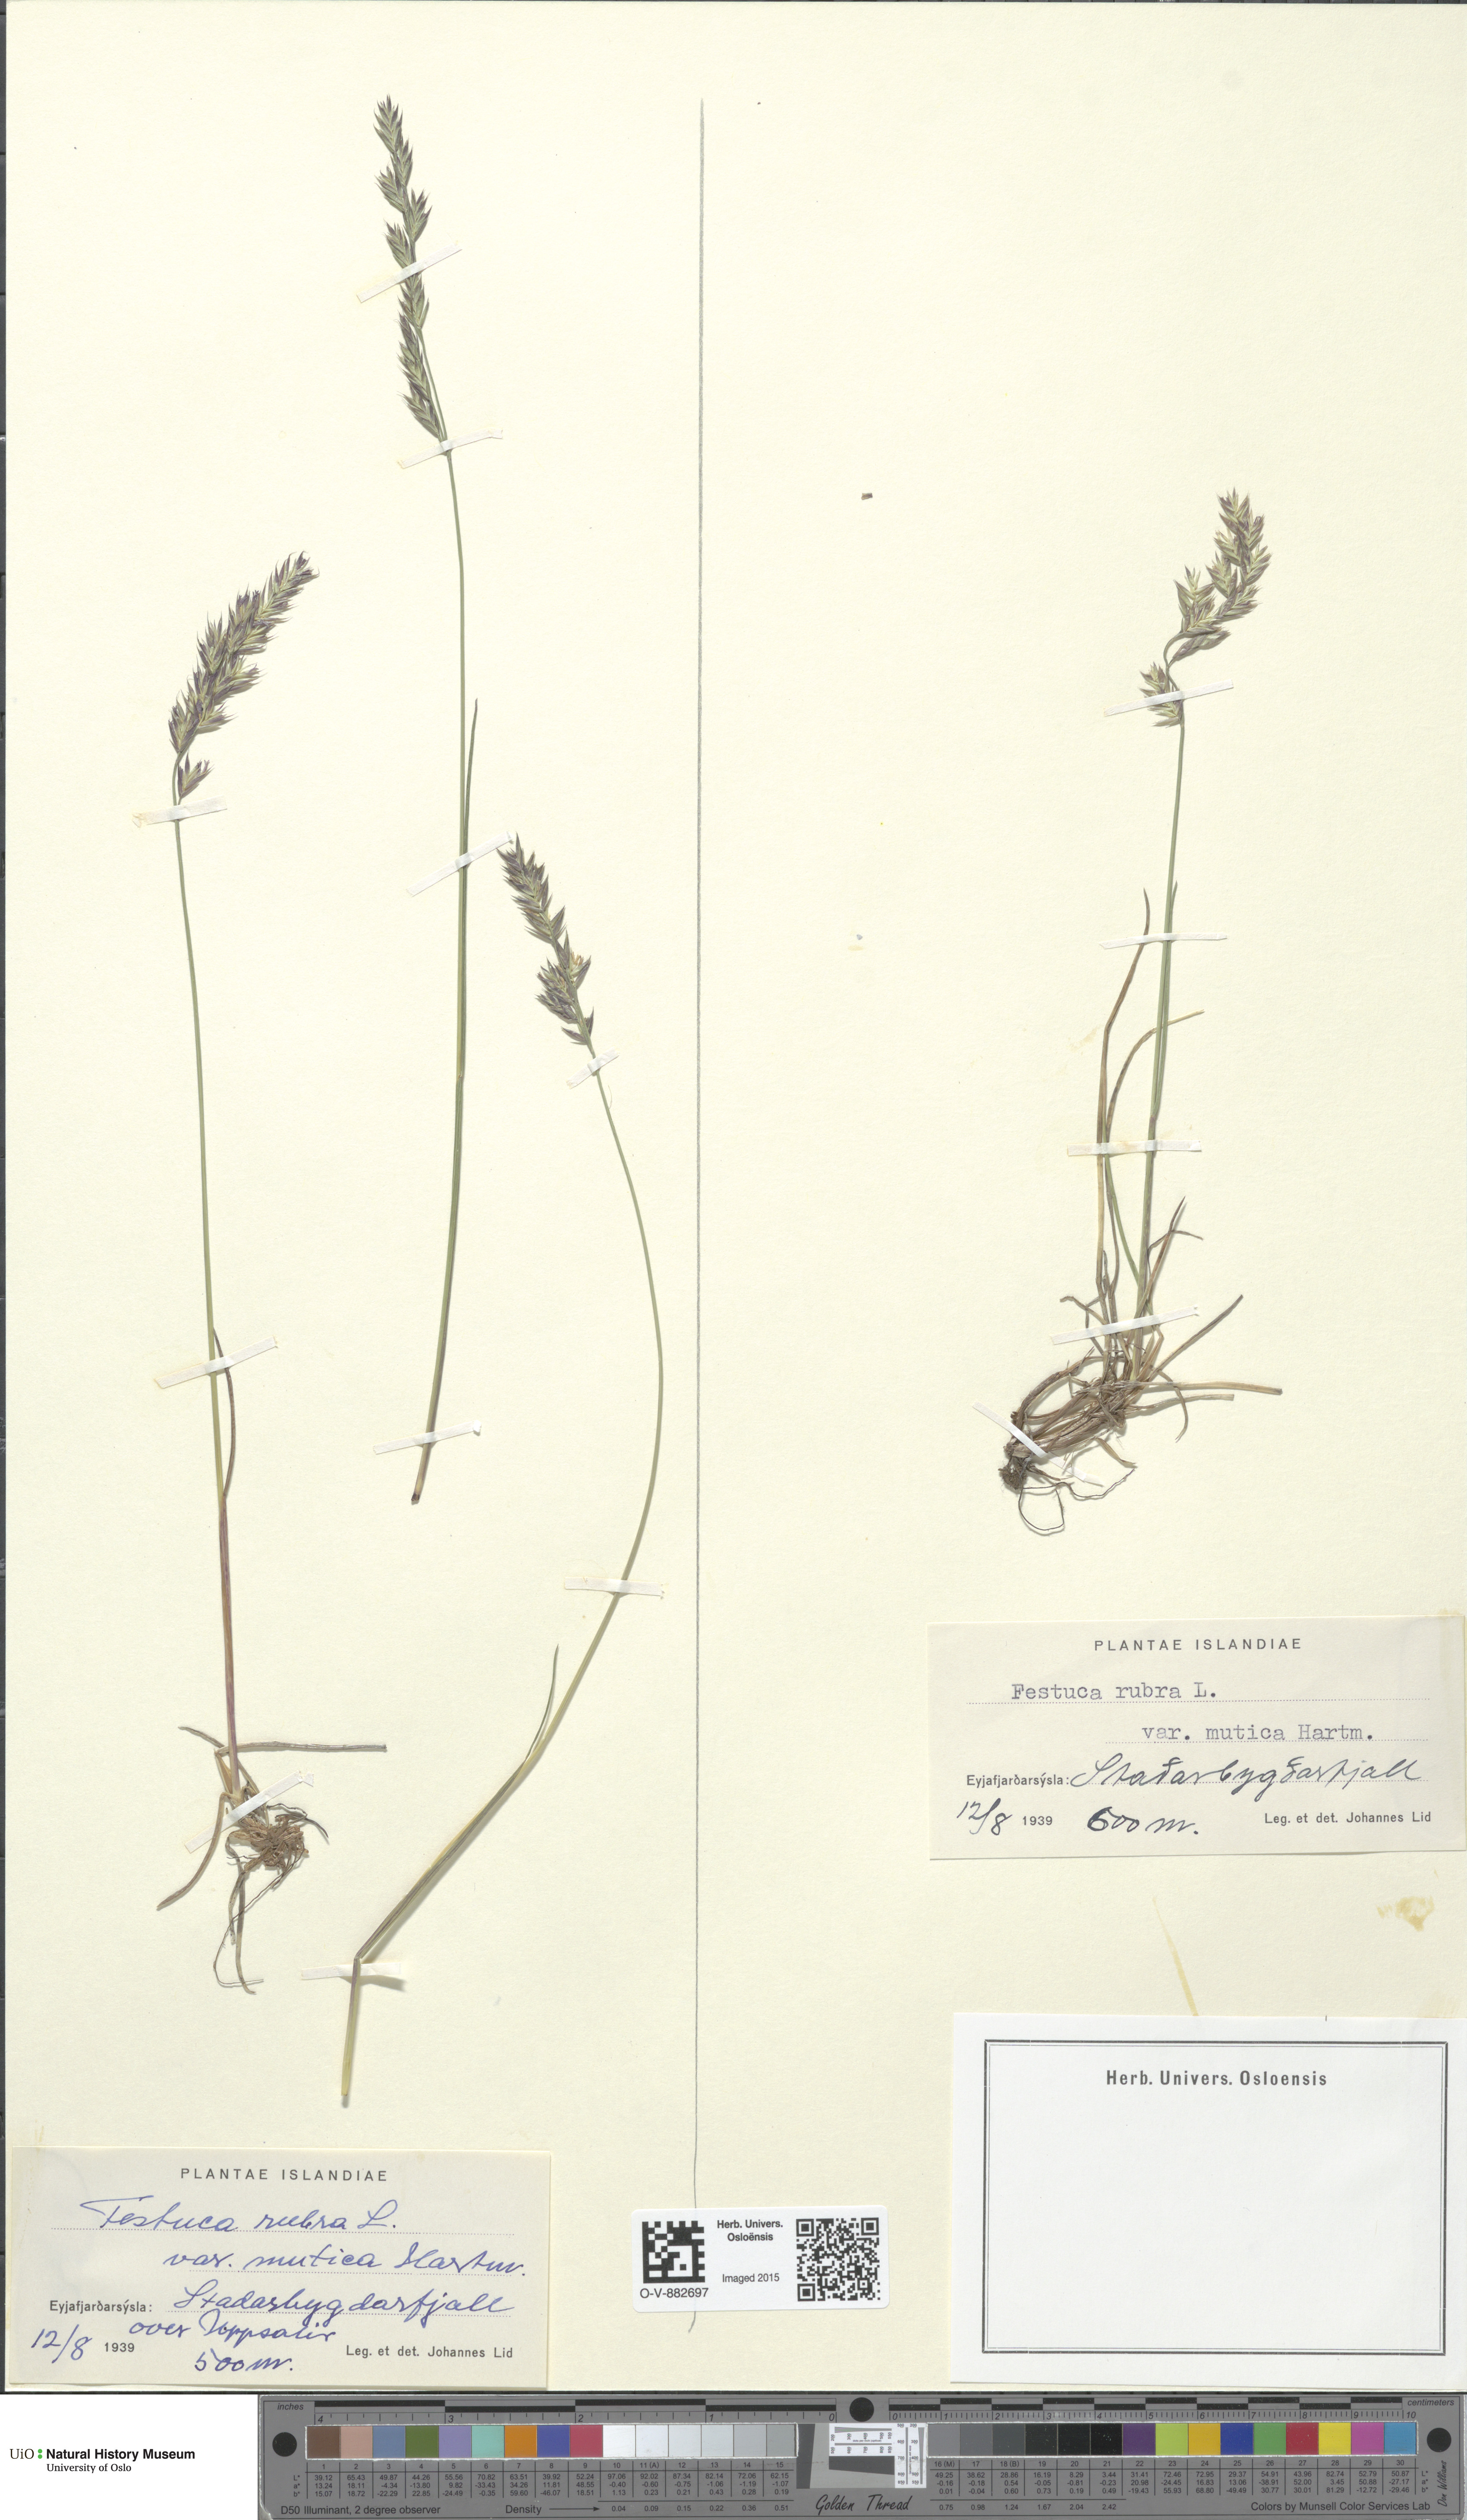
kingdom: Plantae
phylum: Tracheophyta
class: Liliopsida
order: Poales
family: Poaceae
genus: Festuca
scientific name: Festuca richardsonii
